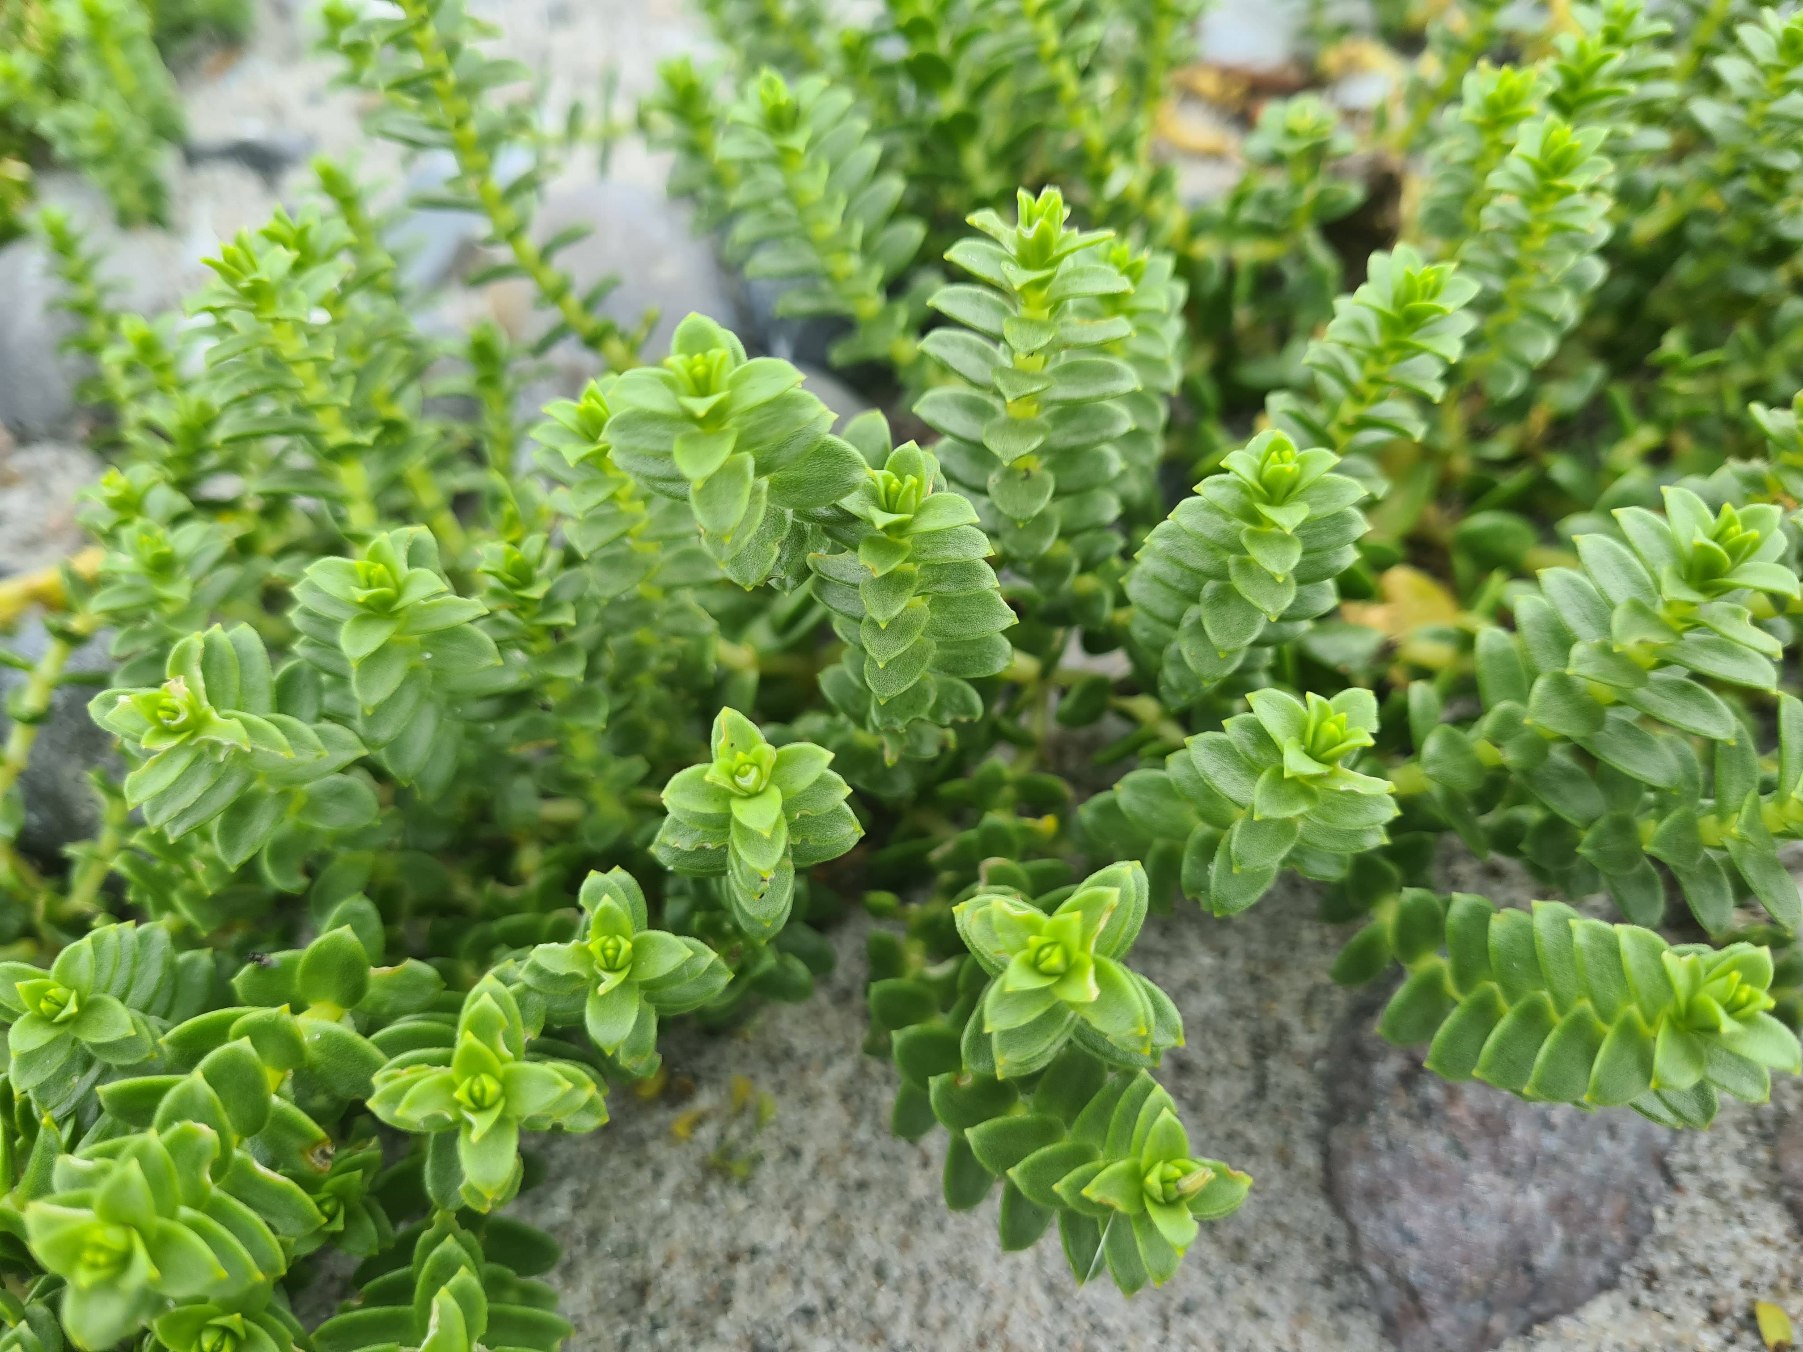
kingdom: Plantae
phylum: Tracheophyta
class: Magnoliopsida
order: Caryophyllales
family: Caryophyllaceae
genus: Honckenya
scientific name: Honckenya peploides
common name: Strandarve
